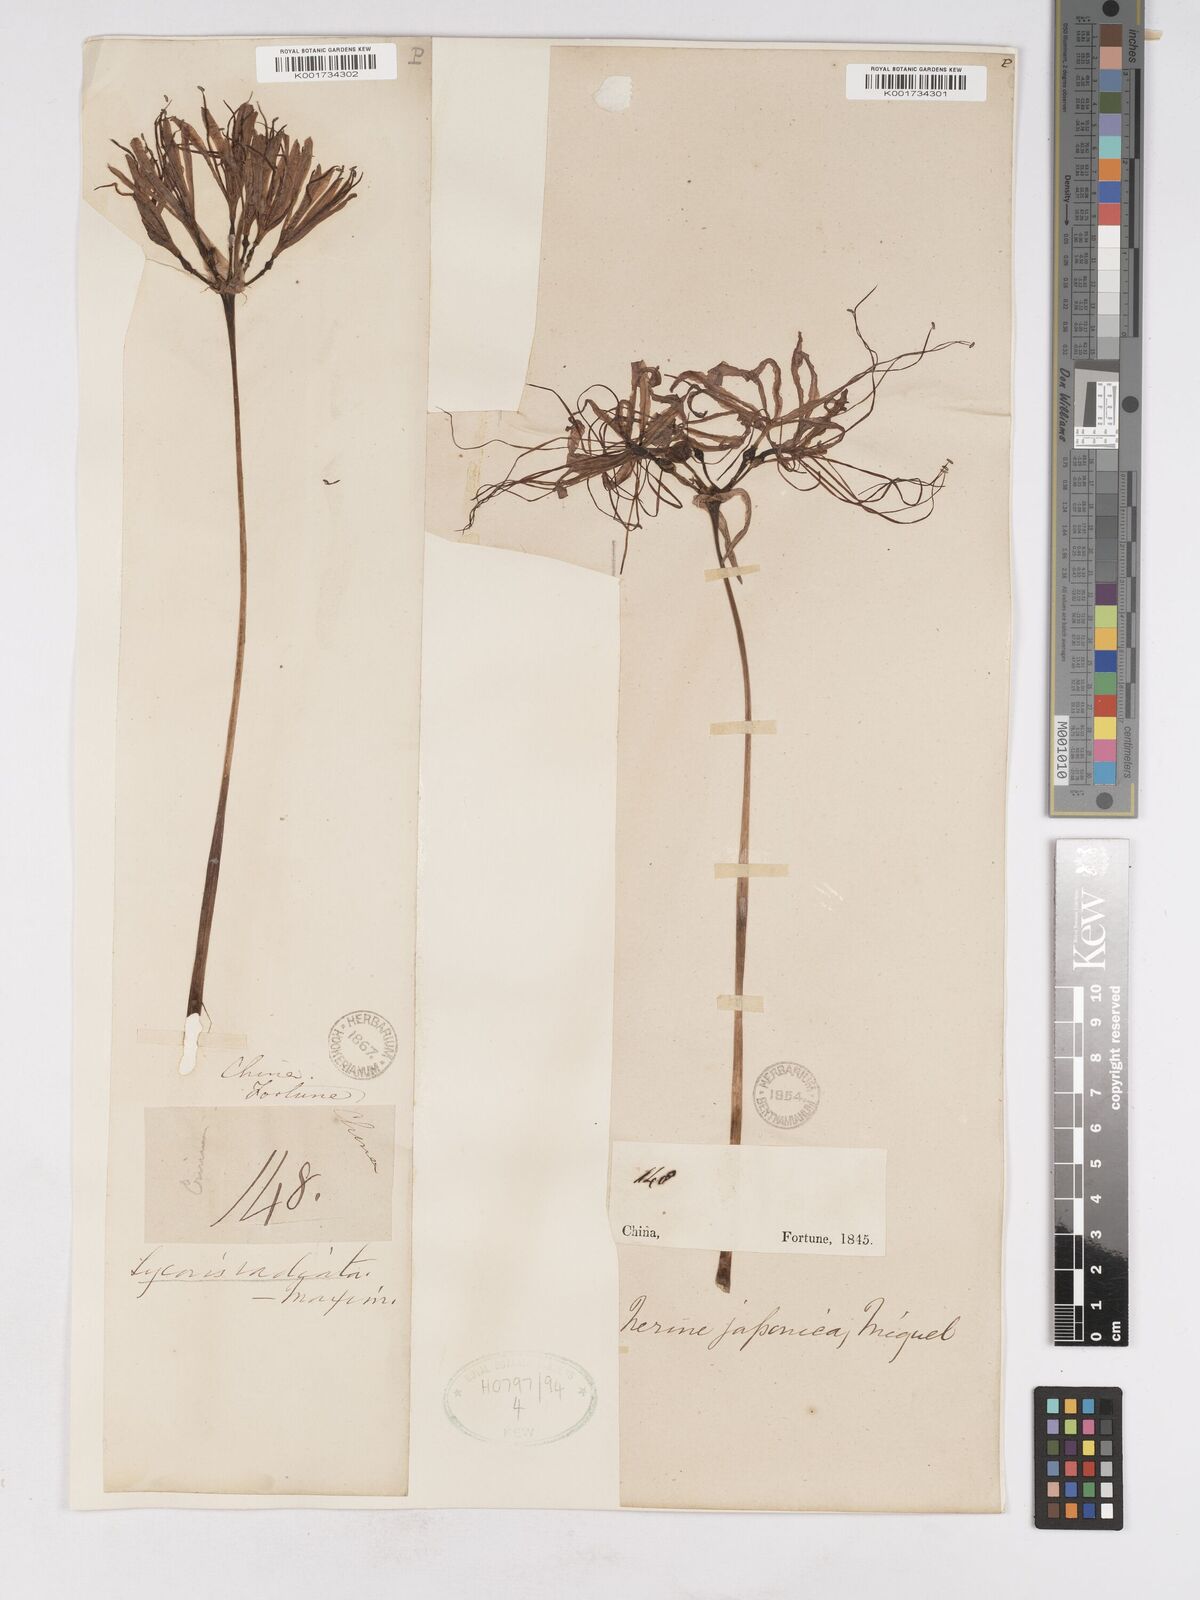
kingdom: Plantae
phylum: Tracheophyta
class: Liliopsida
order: Asparagales
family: Amaryllidaceae
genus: Lycoris
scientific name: Lycoris radiata
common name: Red spider lily
